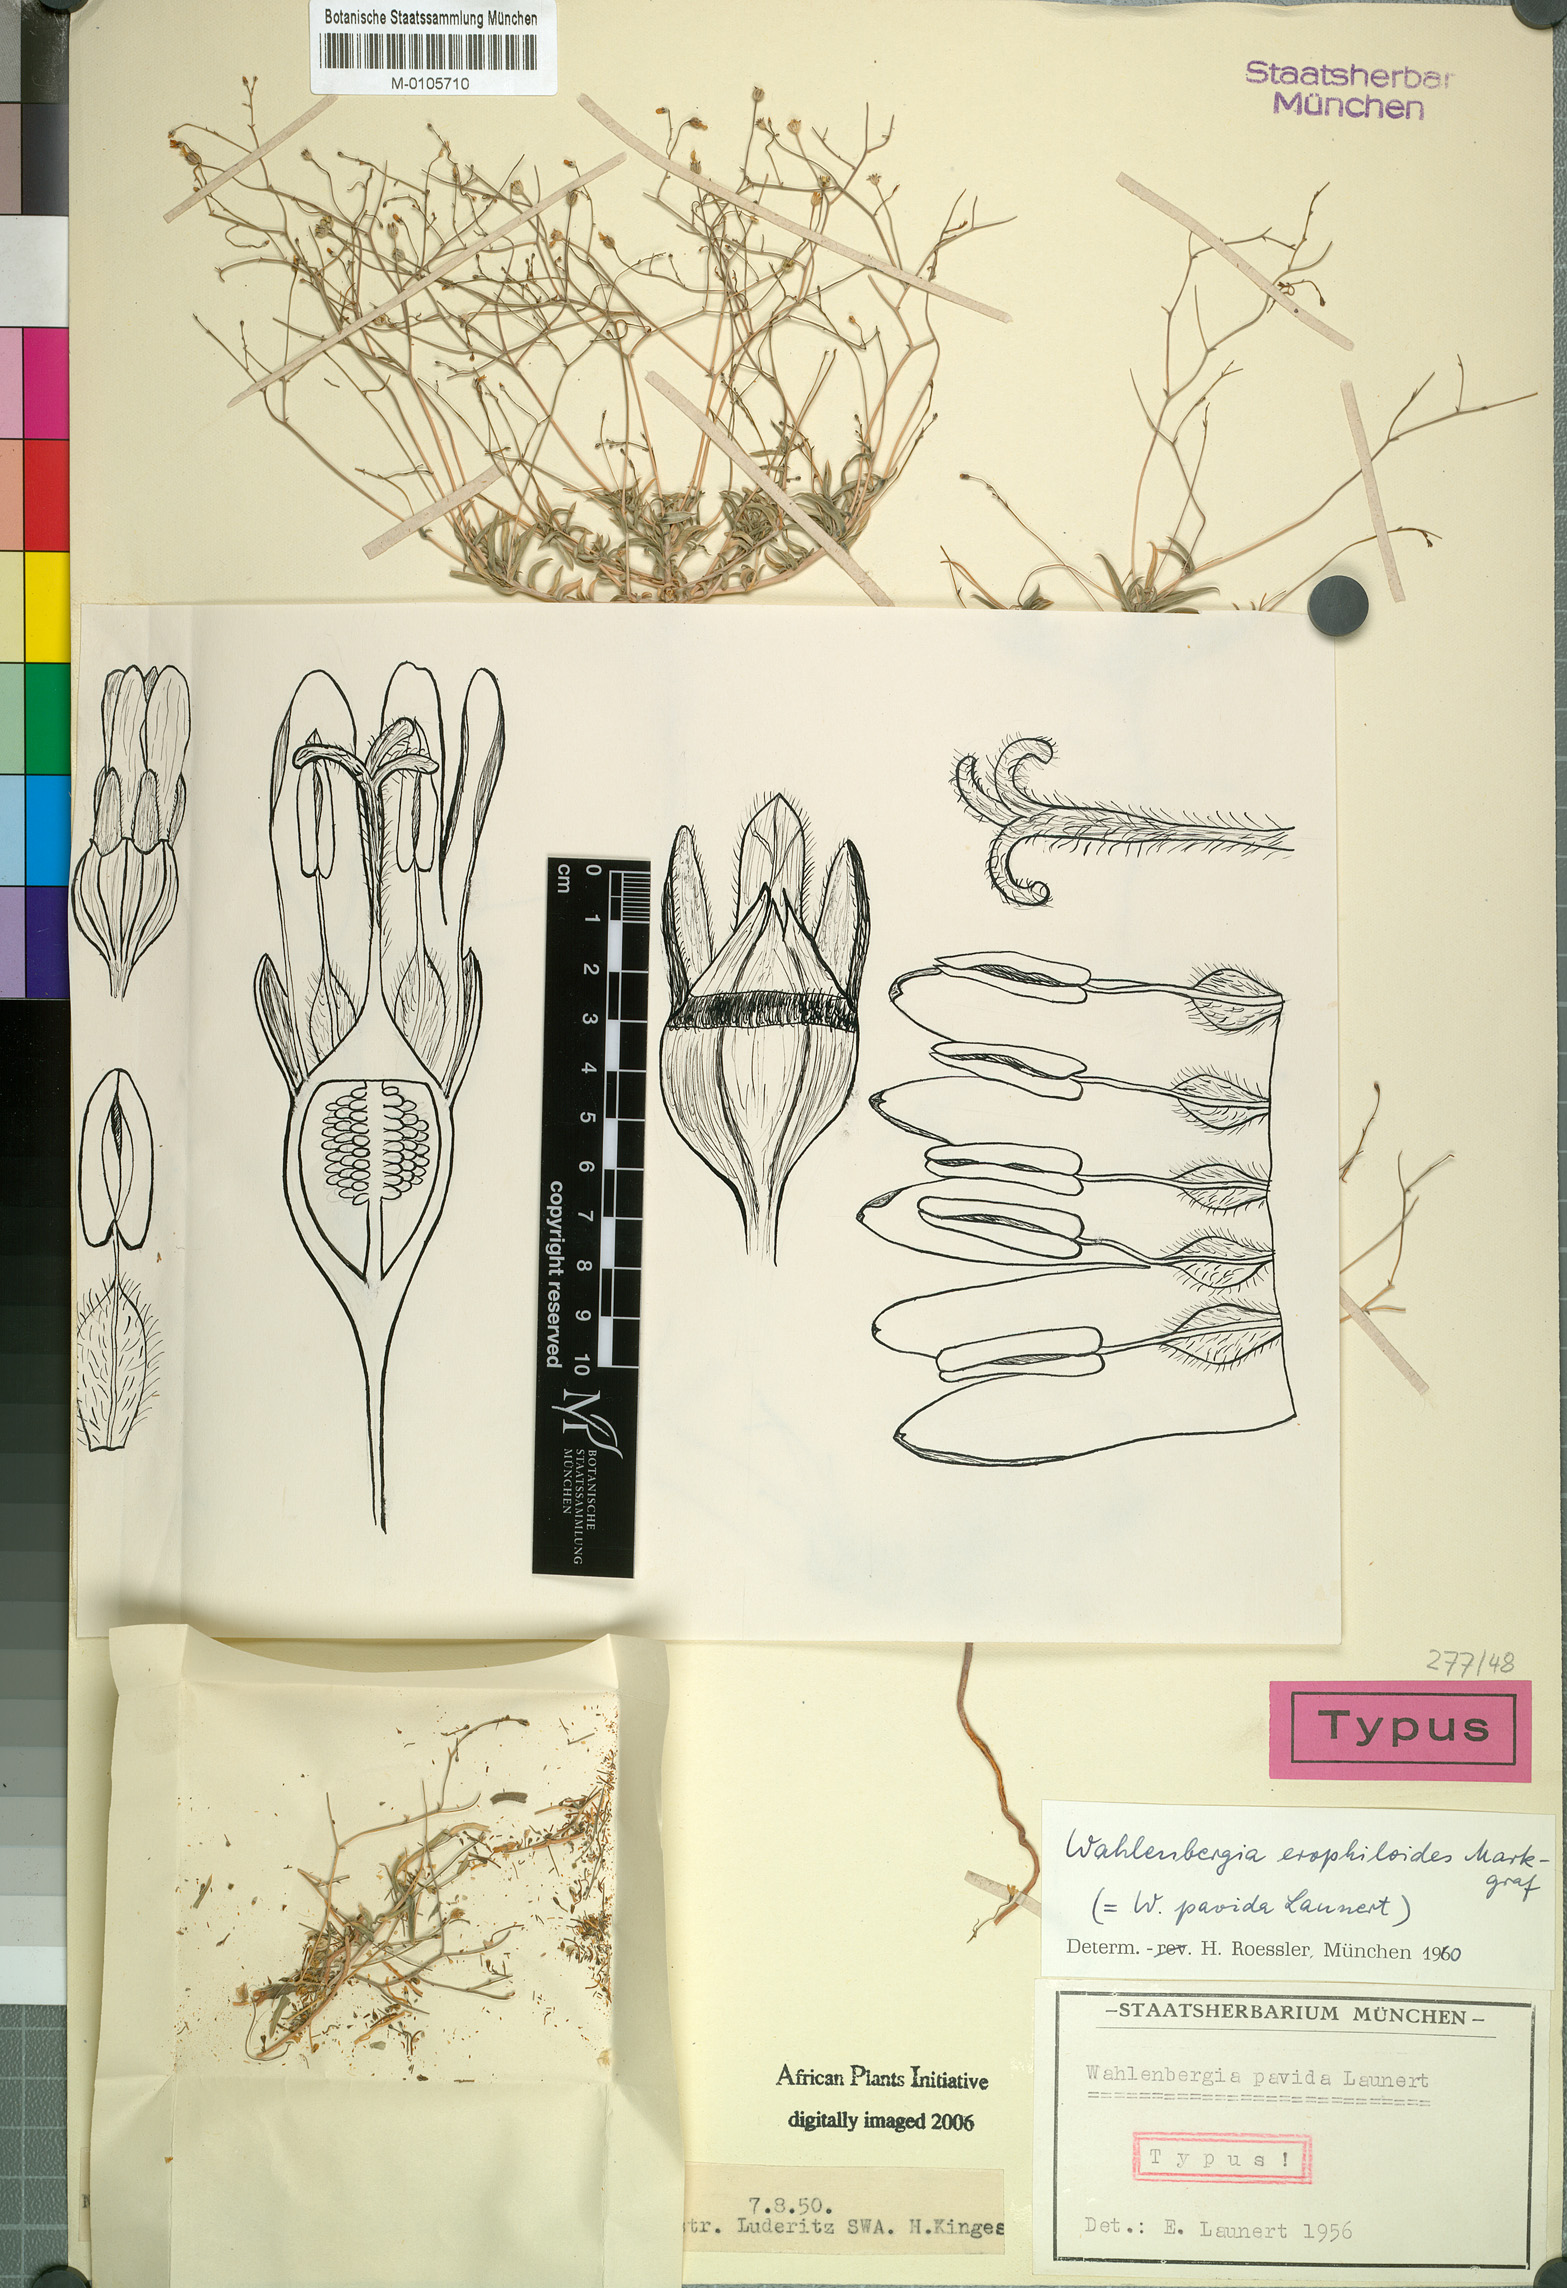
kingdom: Plantae
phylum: Tracheophyta
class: Magnoliopsida
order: Asterales
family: Campanulaceae
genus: Wahlenbergia
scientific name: Wahlenbergia erophiloides
